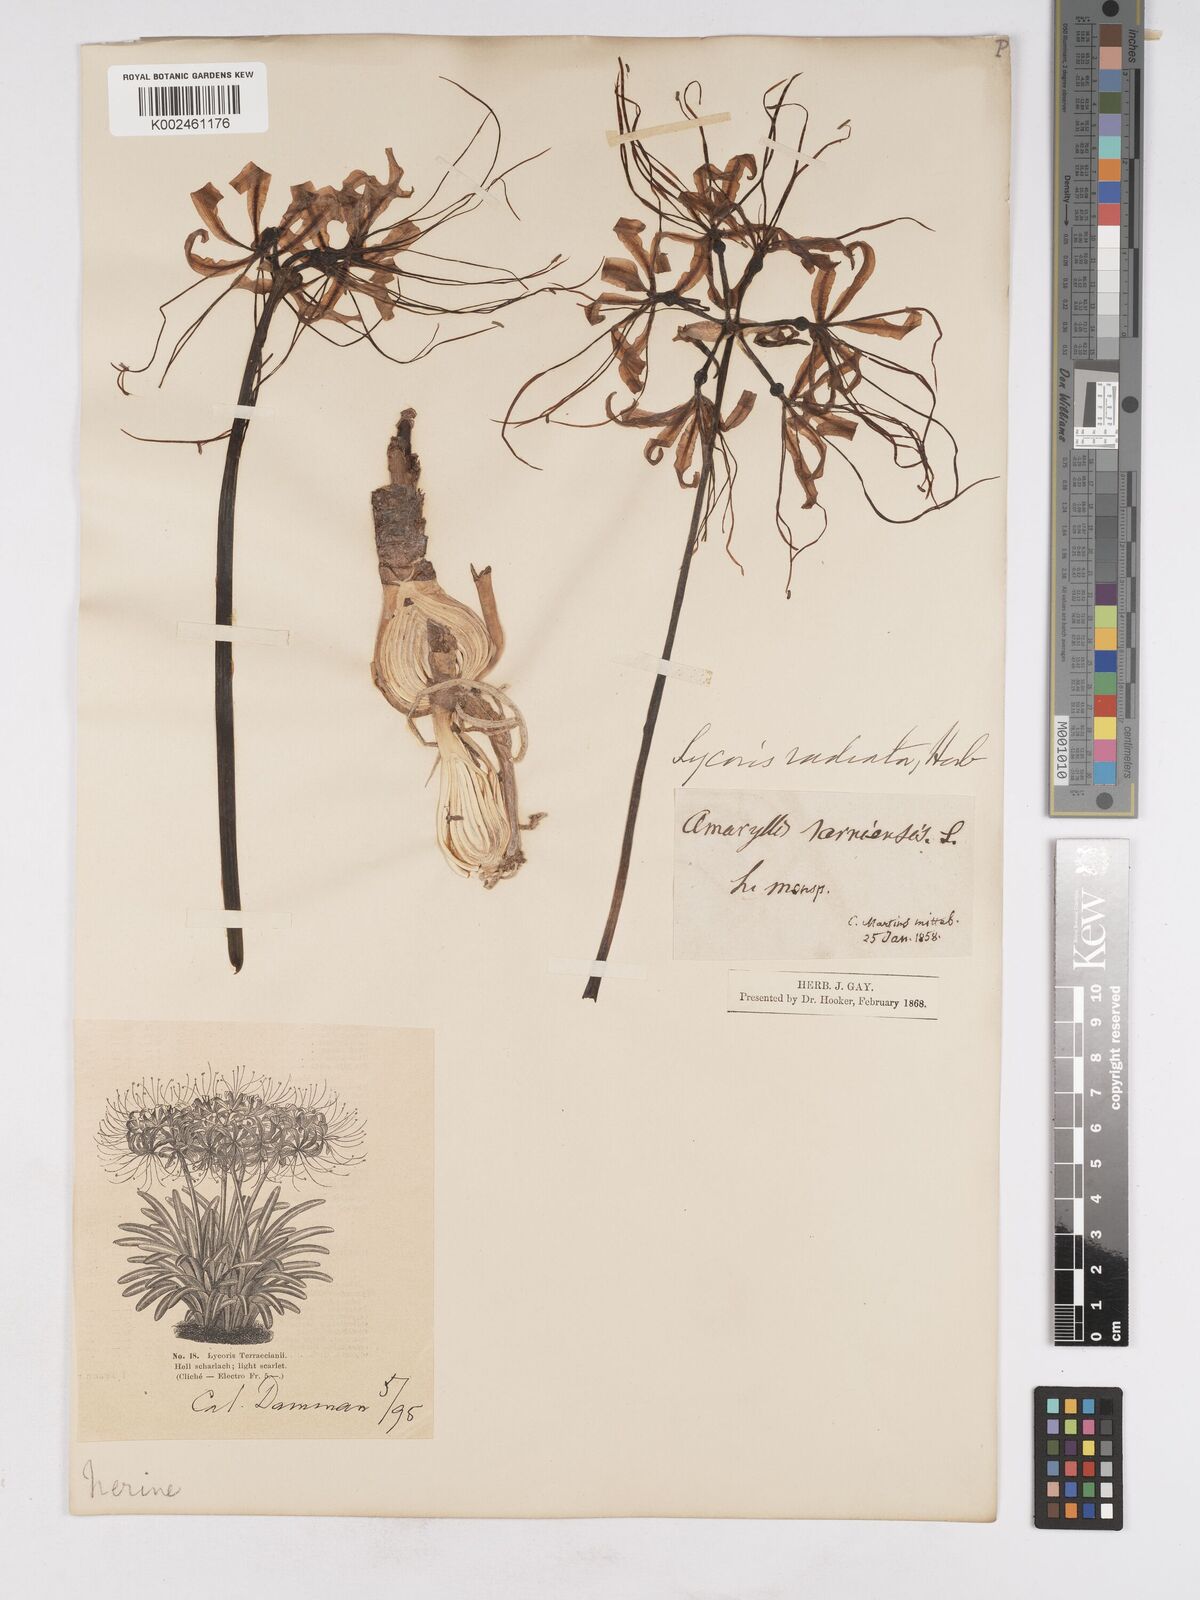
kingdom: Plantae
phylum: Tracheophyta
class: Liliopsida
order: Asparagales
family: Amaryllidaceae
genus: Lycoris
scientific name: Lycoris radiata
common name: Red spider lily
